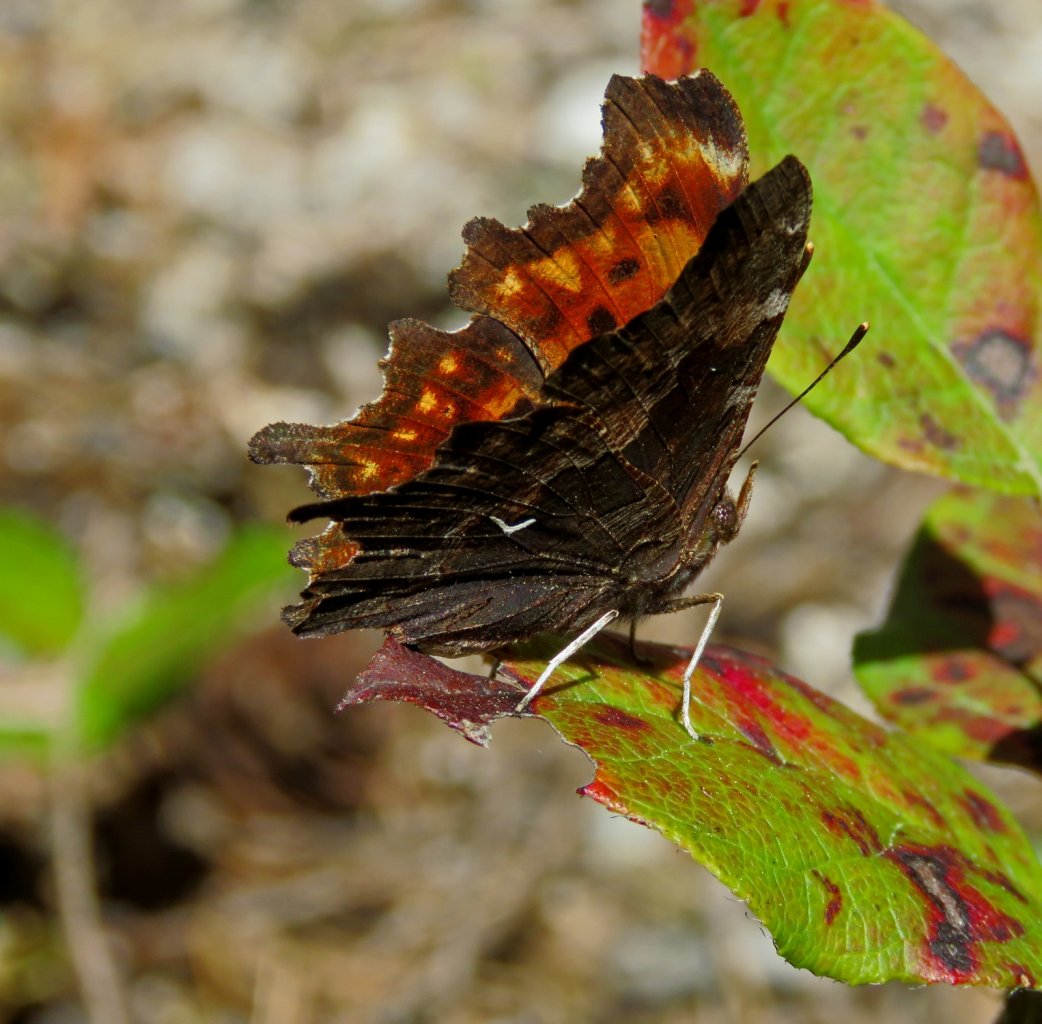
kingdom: Animalia
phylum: Arthropoda
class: Insecta
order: Lepidoptera
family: Nymphalidae
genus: Polygonia
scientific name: Polygonia oreas
